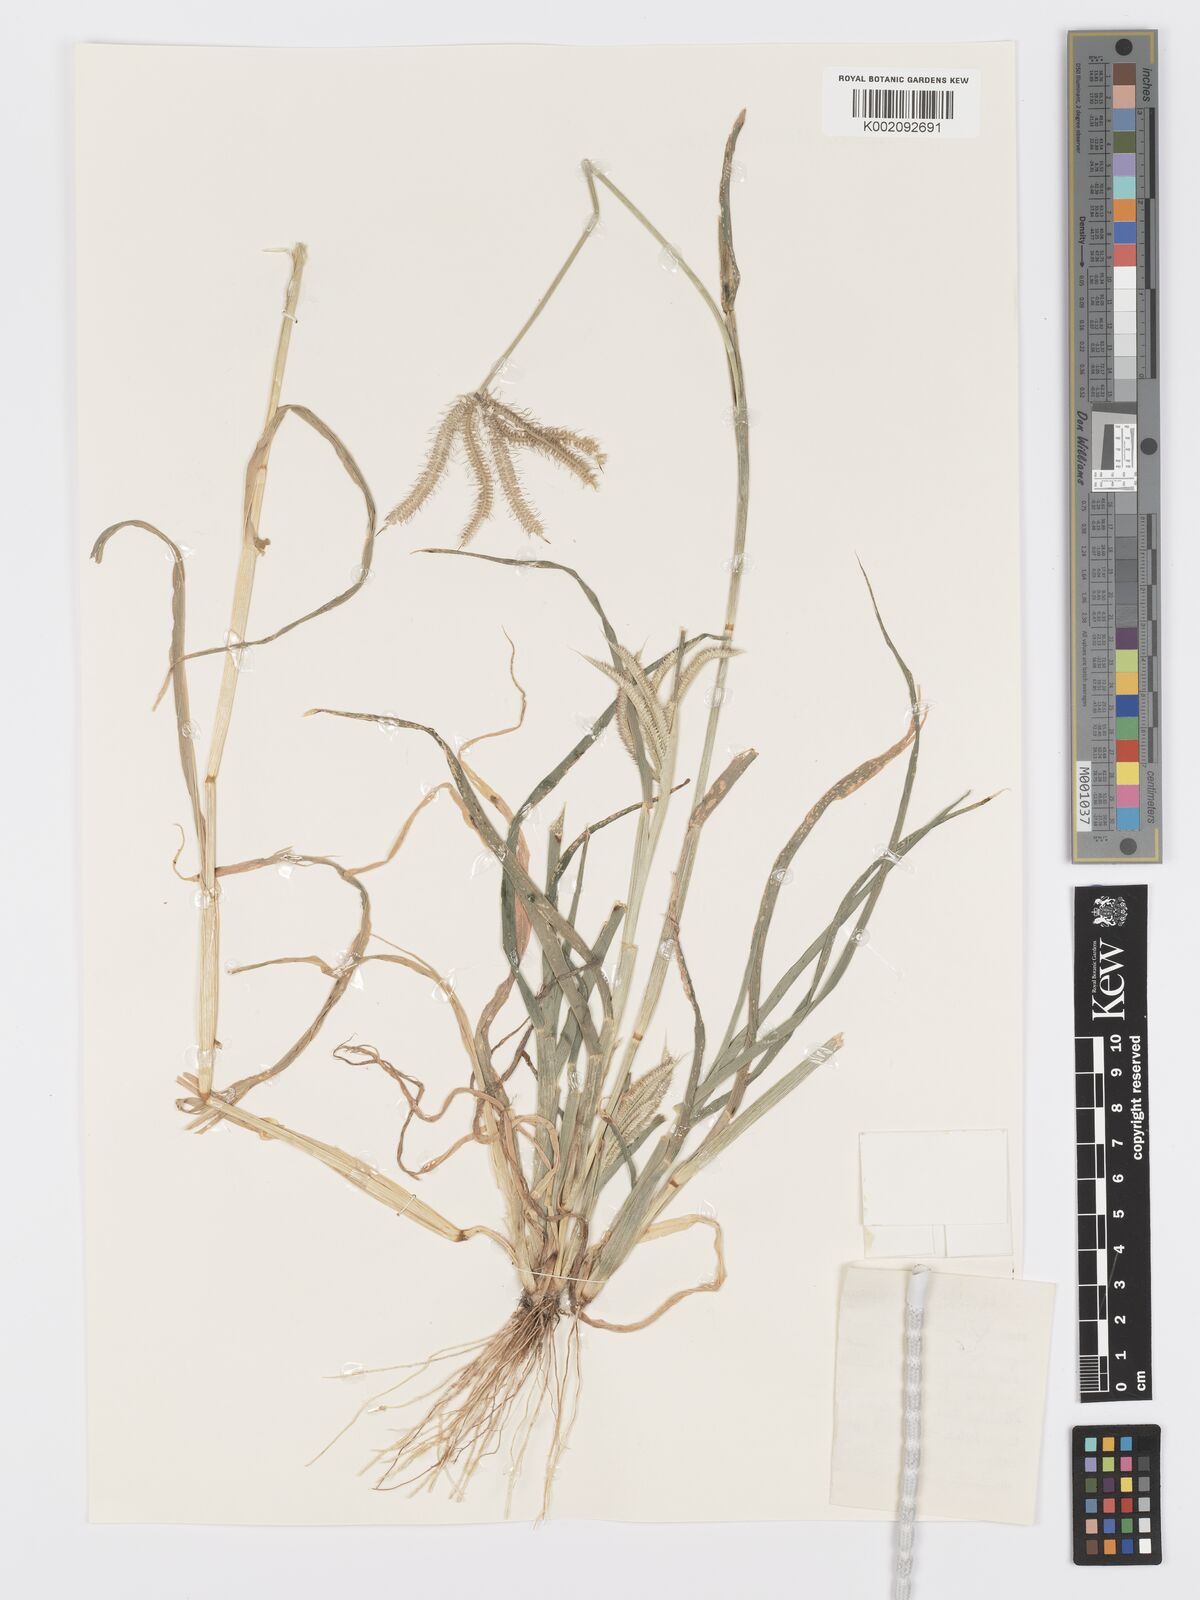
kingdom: Plantae
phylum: Tracheophyta
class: Liliopsida
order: Poales
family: Poaceae
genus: Dactyloctenium
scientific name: Dactyloctenium giganteum
